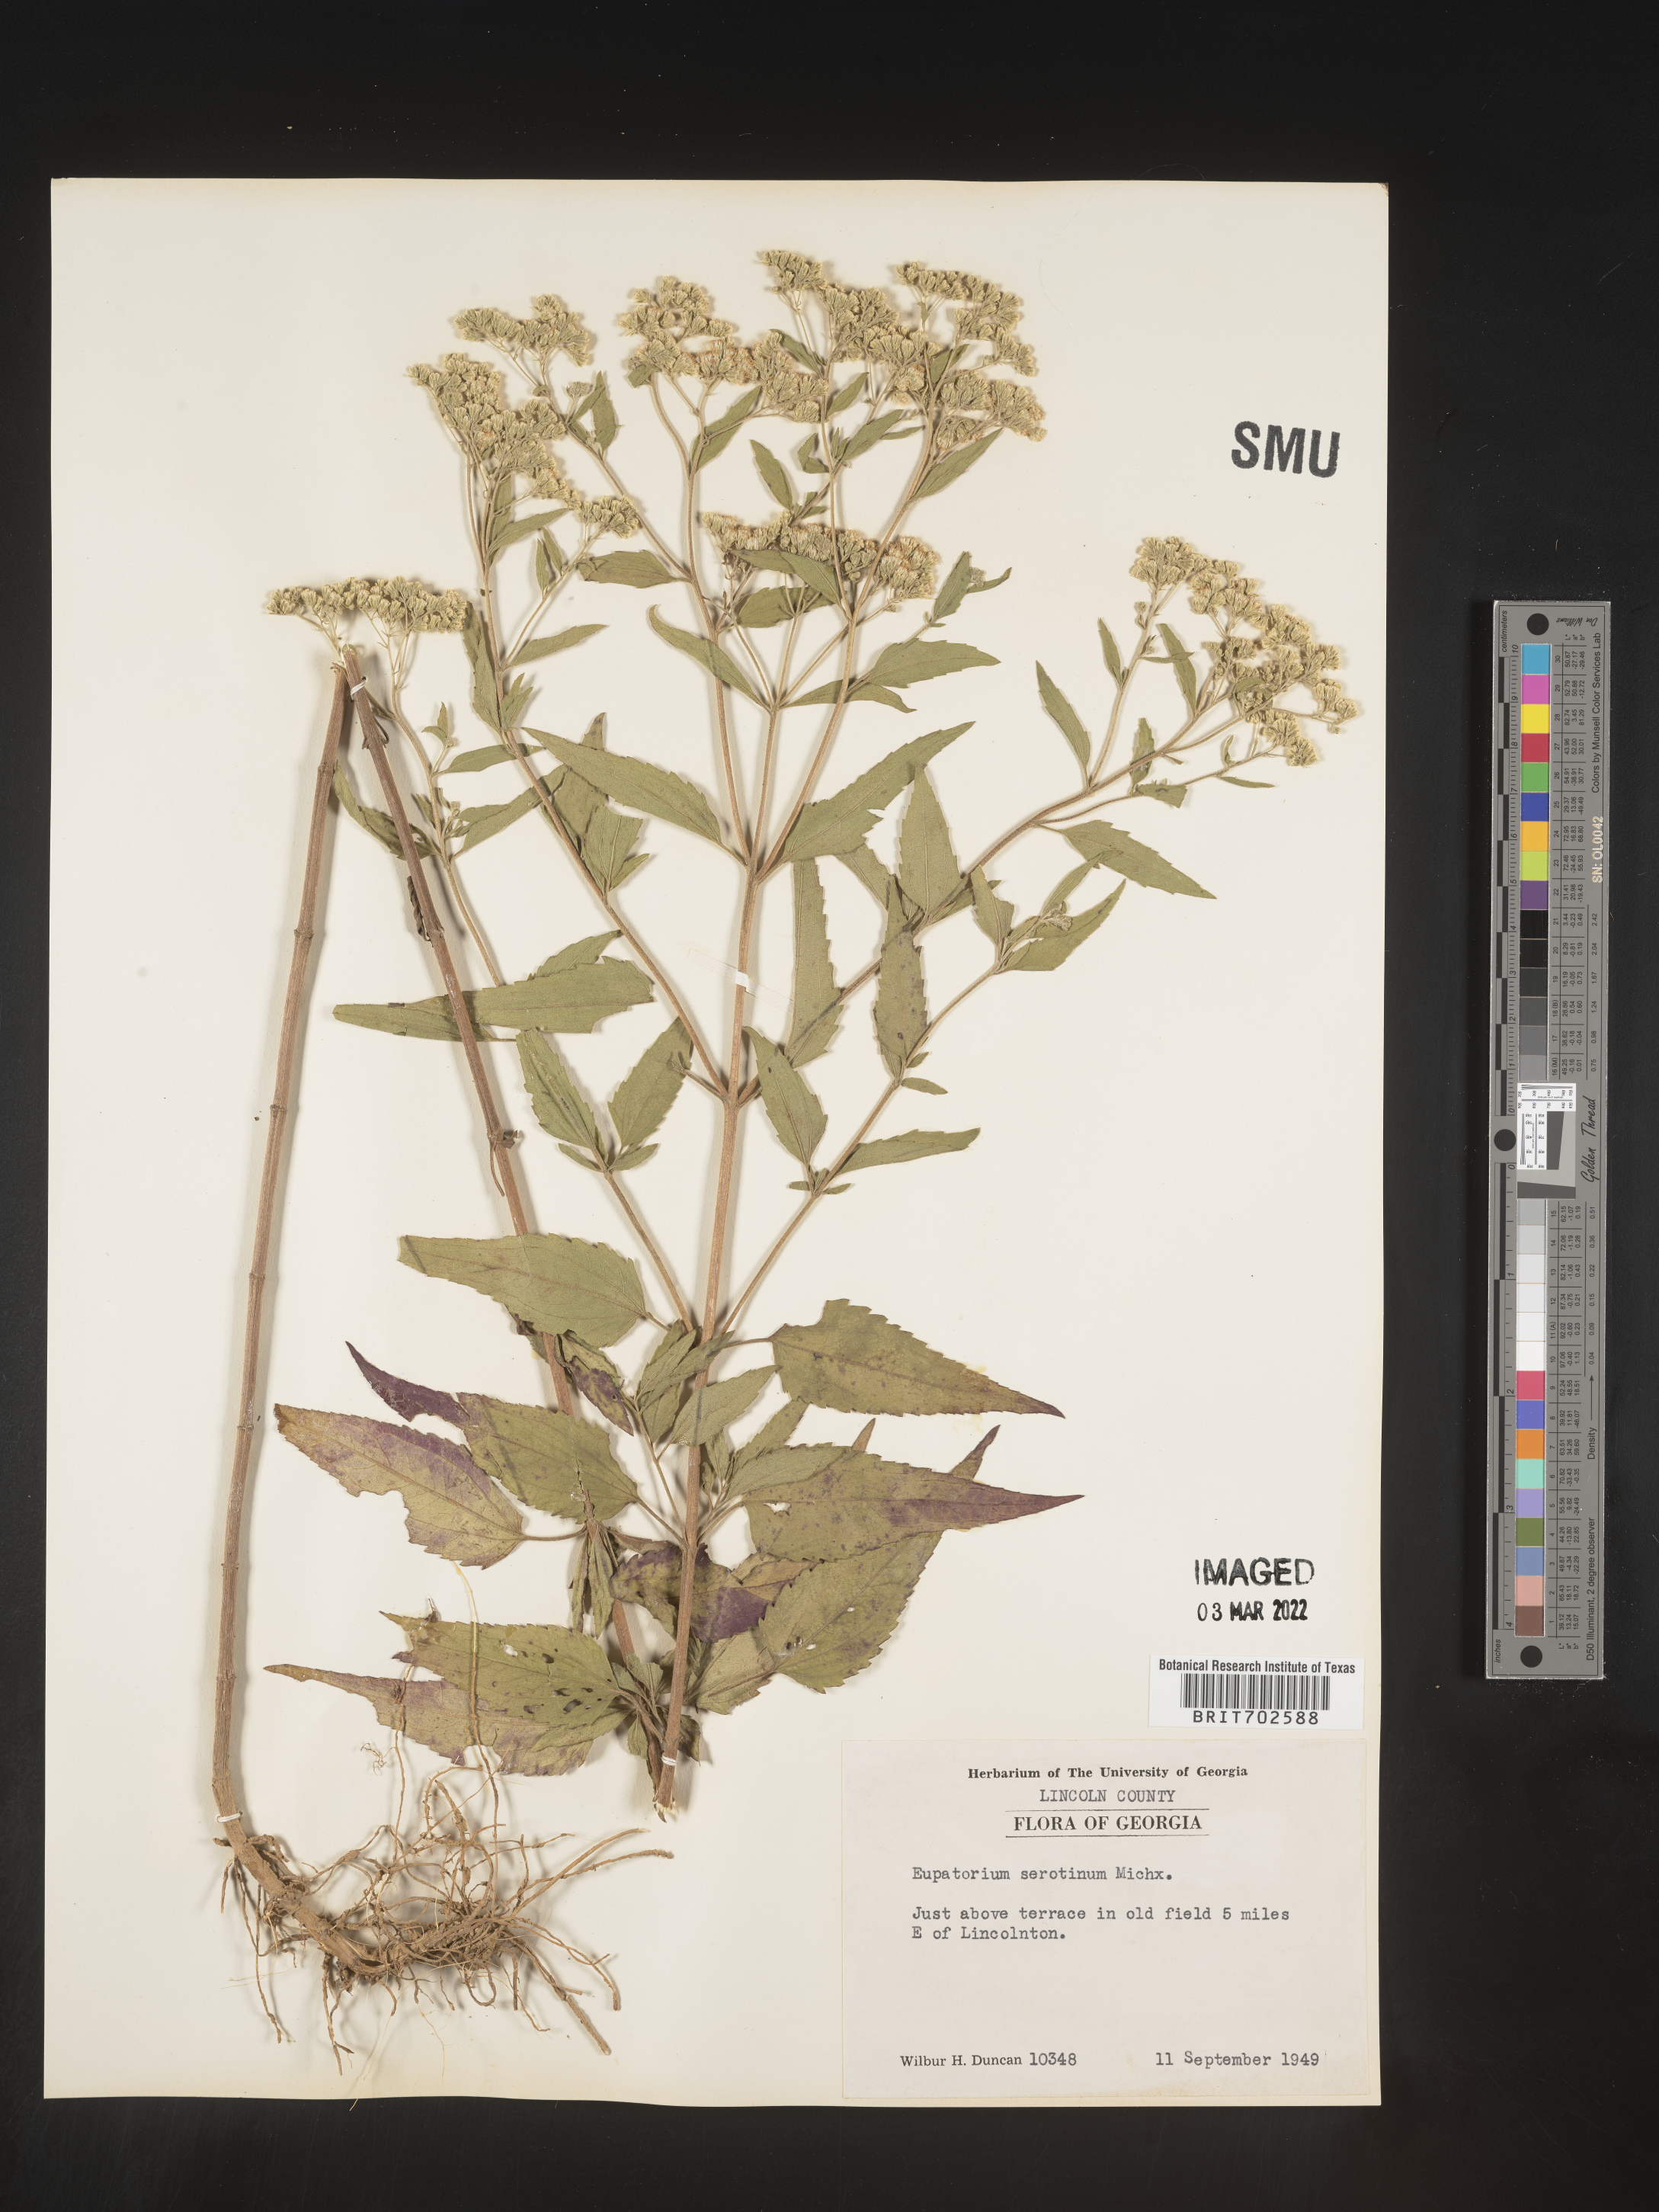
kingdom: Plantae
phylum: Tracheophyta
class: Magnoliopsida
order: Asterales
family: Asteraceae
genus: Eupatorium
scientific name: Eupatorium serotinum
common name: Late boneset
